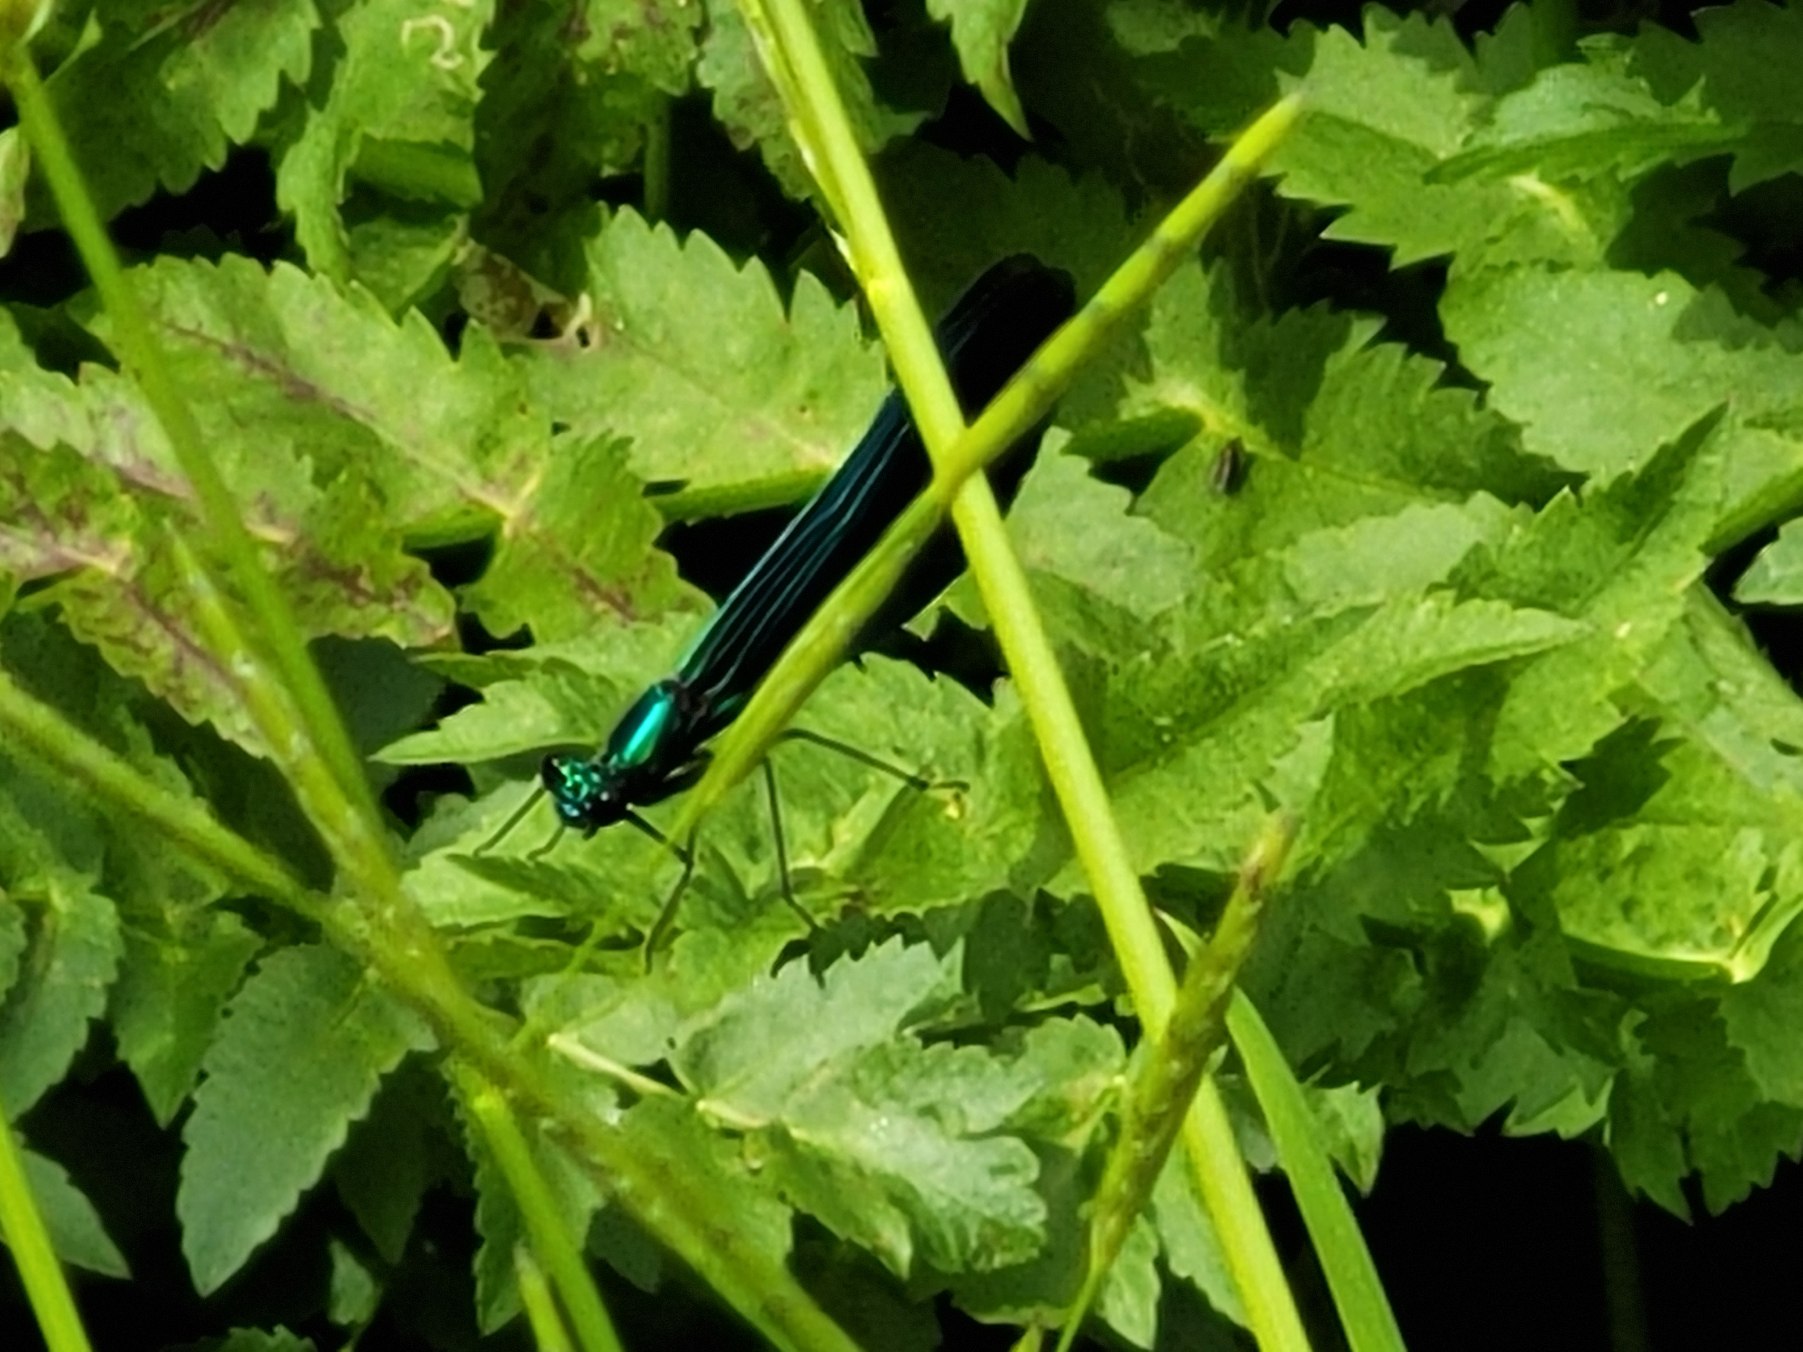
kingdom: Animalia
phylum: Arthropoda
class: Insecta
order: Odonata
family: Calopterygidae
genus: Calopteryx
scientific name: Calopteryx virgo
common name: Blåvinget pragtvandnymfe
